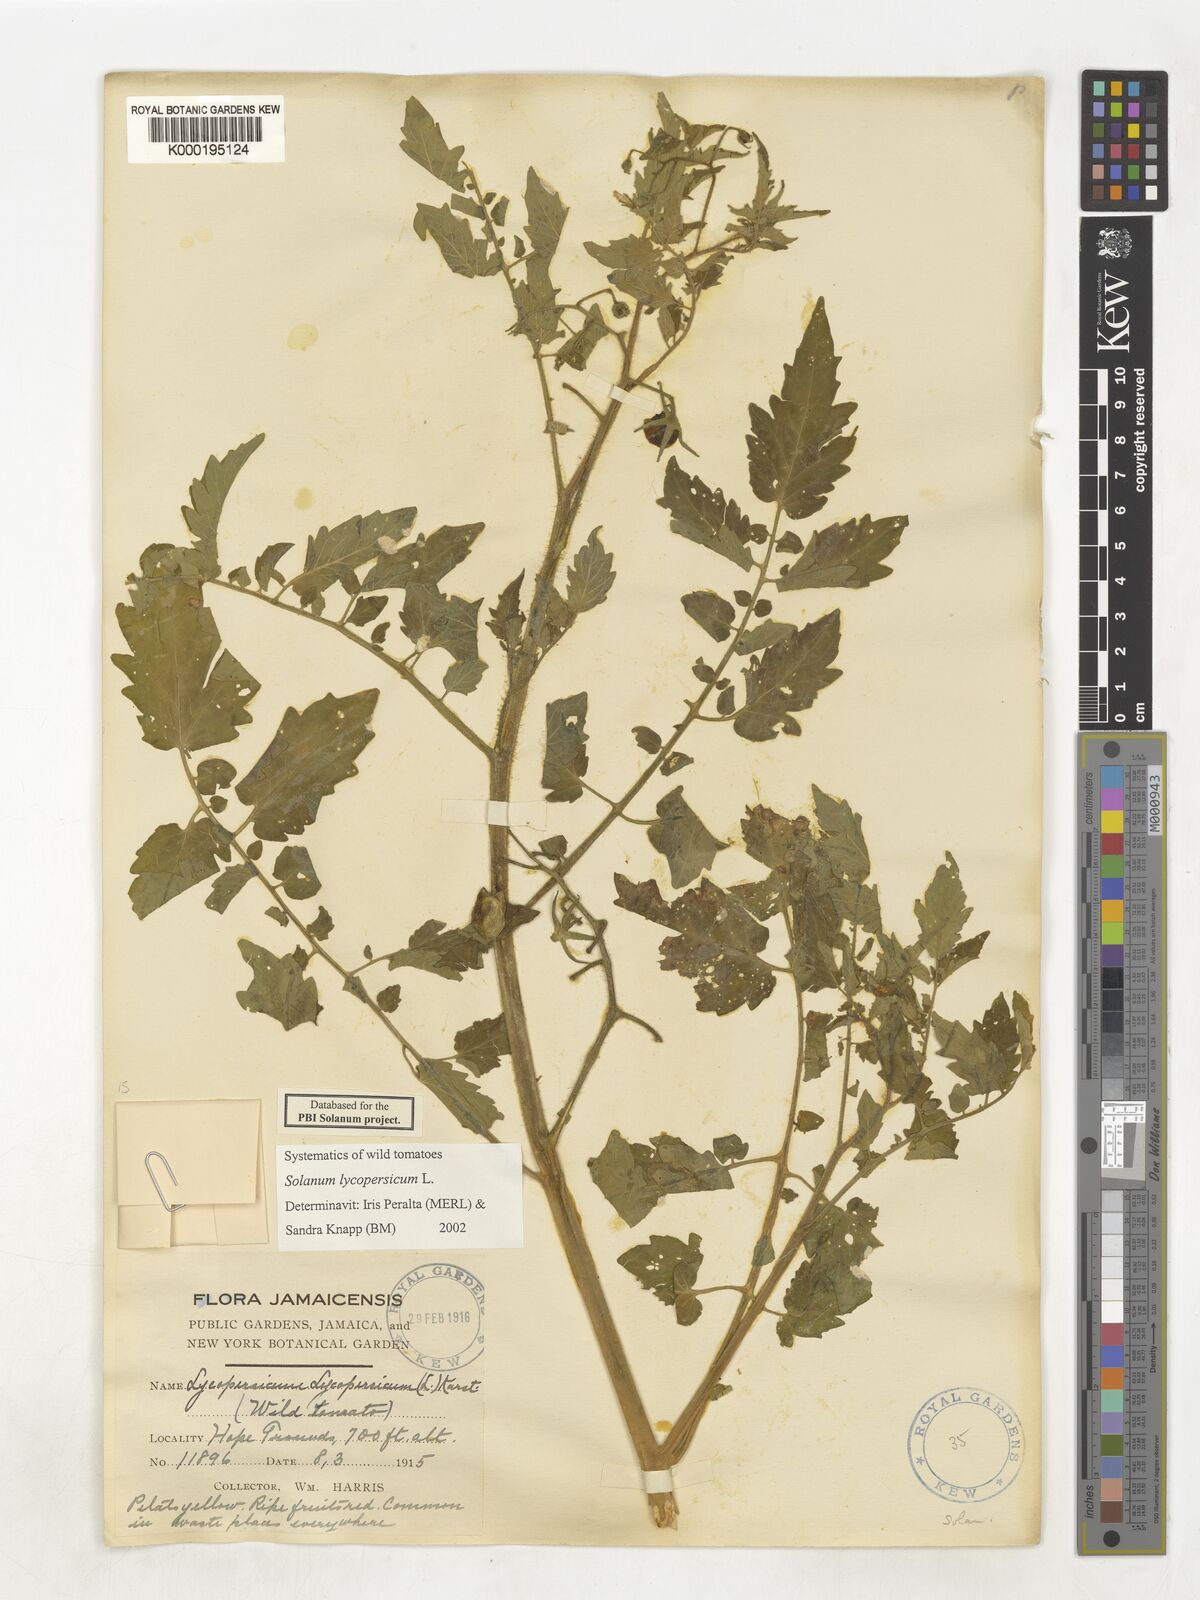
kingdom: Plantae
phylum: Tracheophyta
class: Magnoliopsida
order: Solanales
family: Solanaceae
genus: Solanum
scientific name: Solanum lycopersicum
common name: Garden tomato
